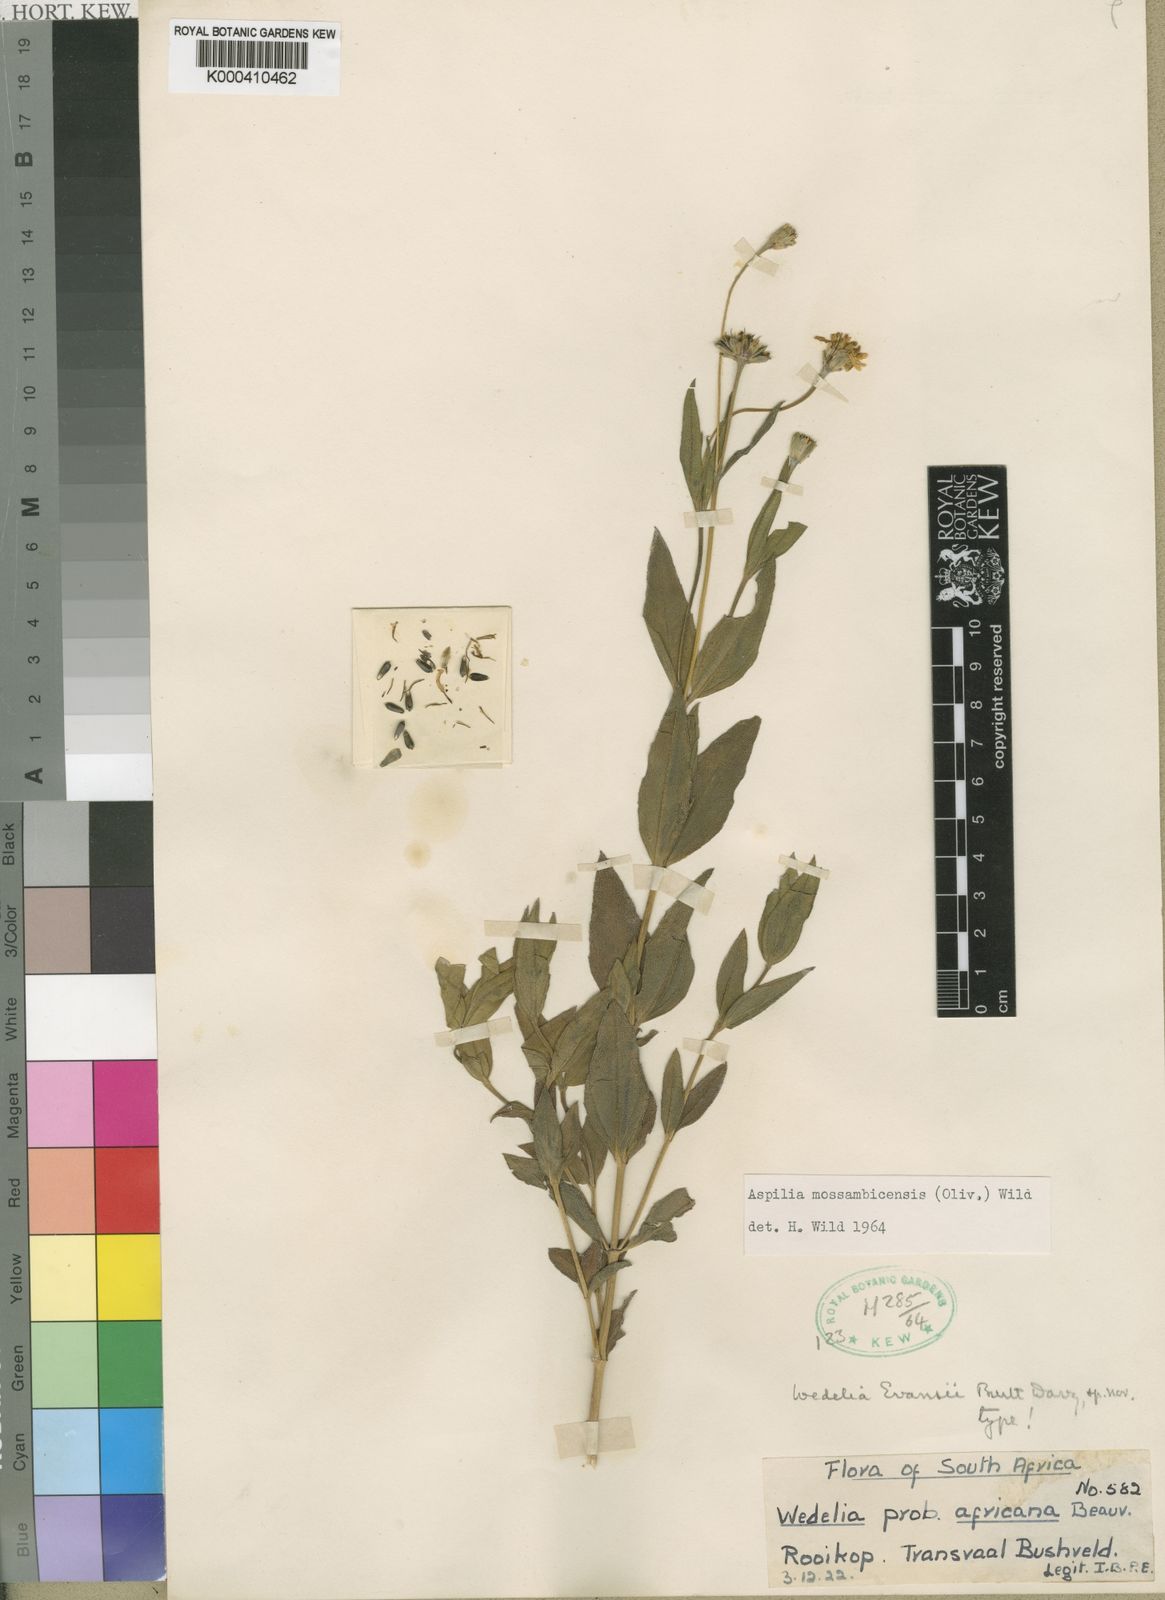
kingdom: Plantae
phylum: Tracheophyta
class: Magnoliopsida
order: Asterales
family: Asteraceae
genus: Aspilia
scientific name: Aspilia mossambicensis
